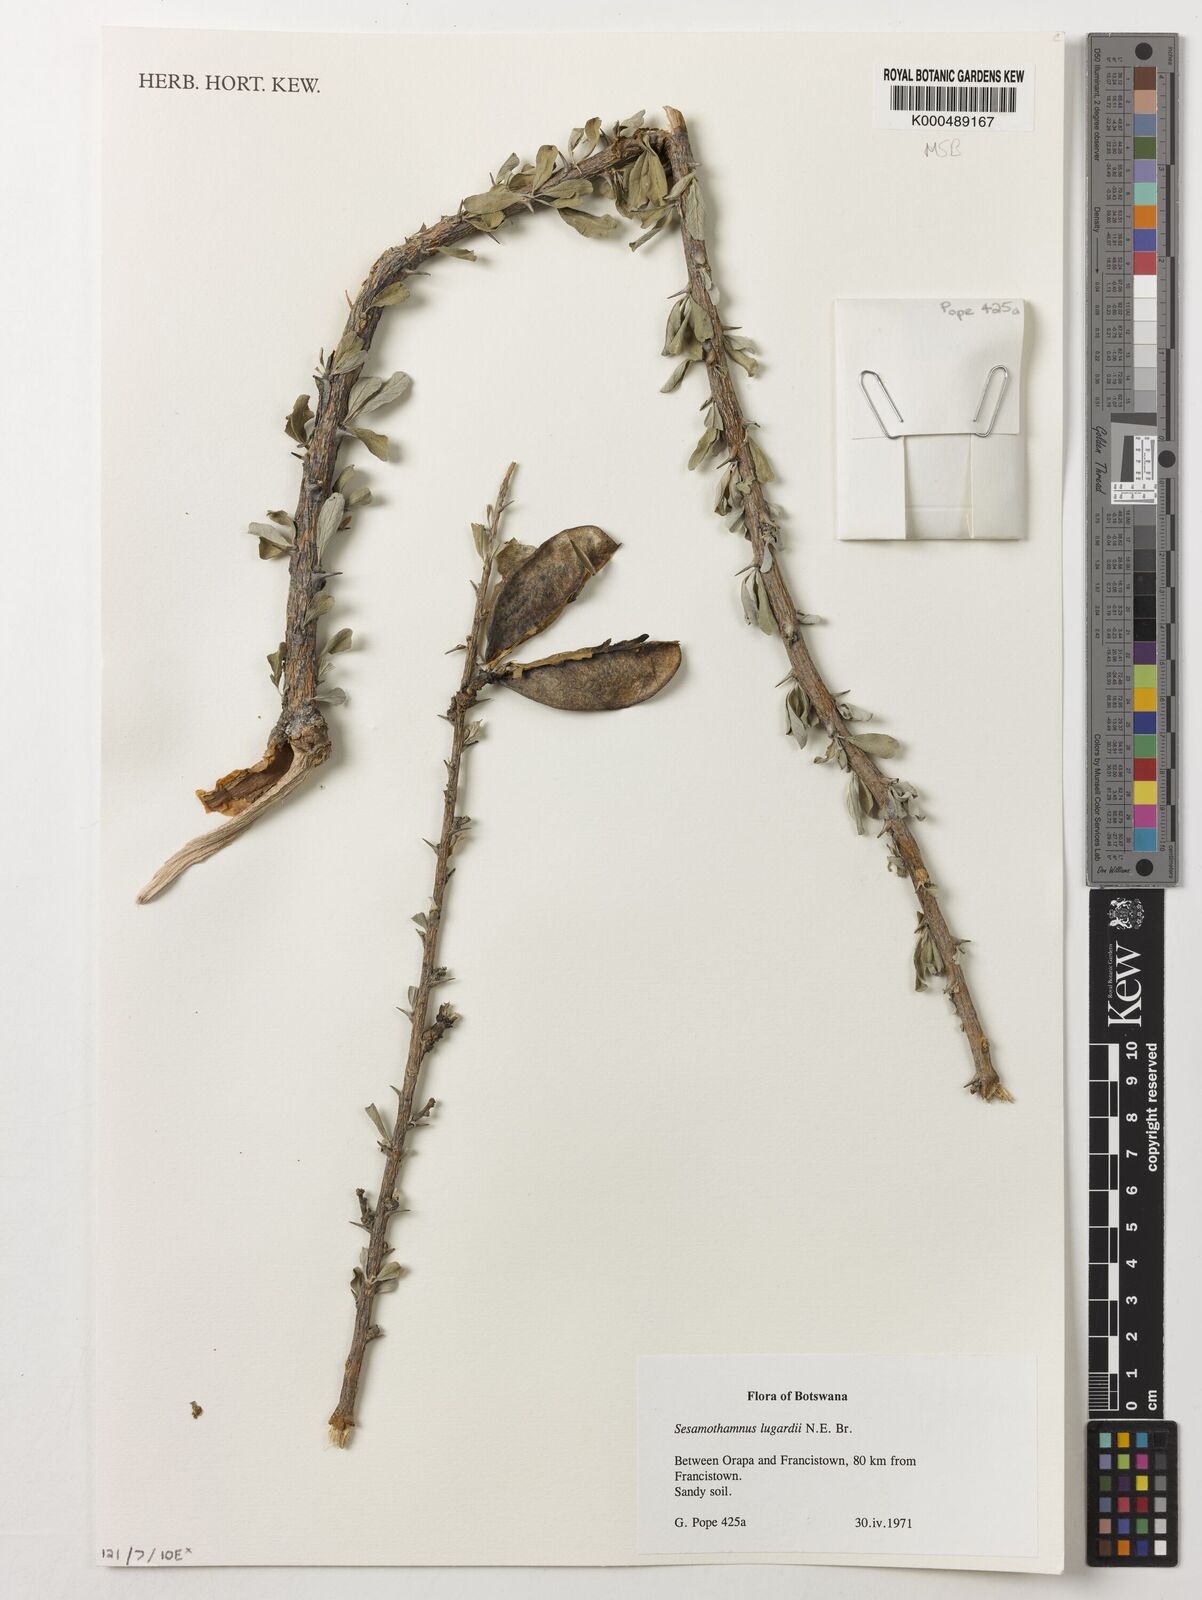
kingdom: Plantae
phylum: Tracheophyta
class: Magnoliopsida
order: Lamiales
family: Pedaliaceae
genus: Sesamothamnus
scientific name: Sesamothamnus lugardii
